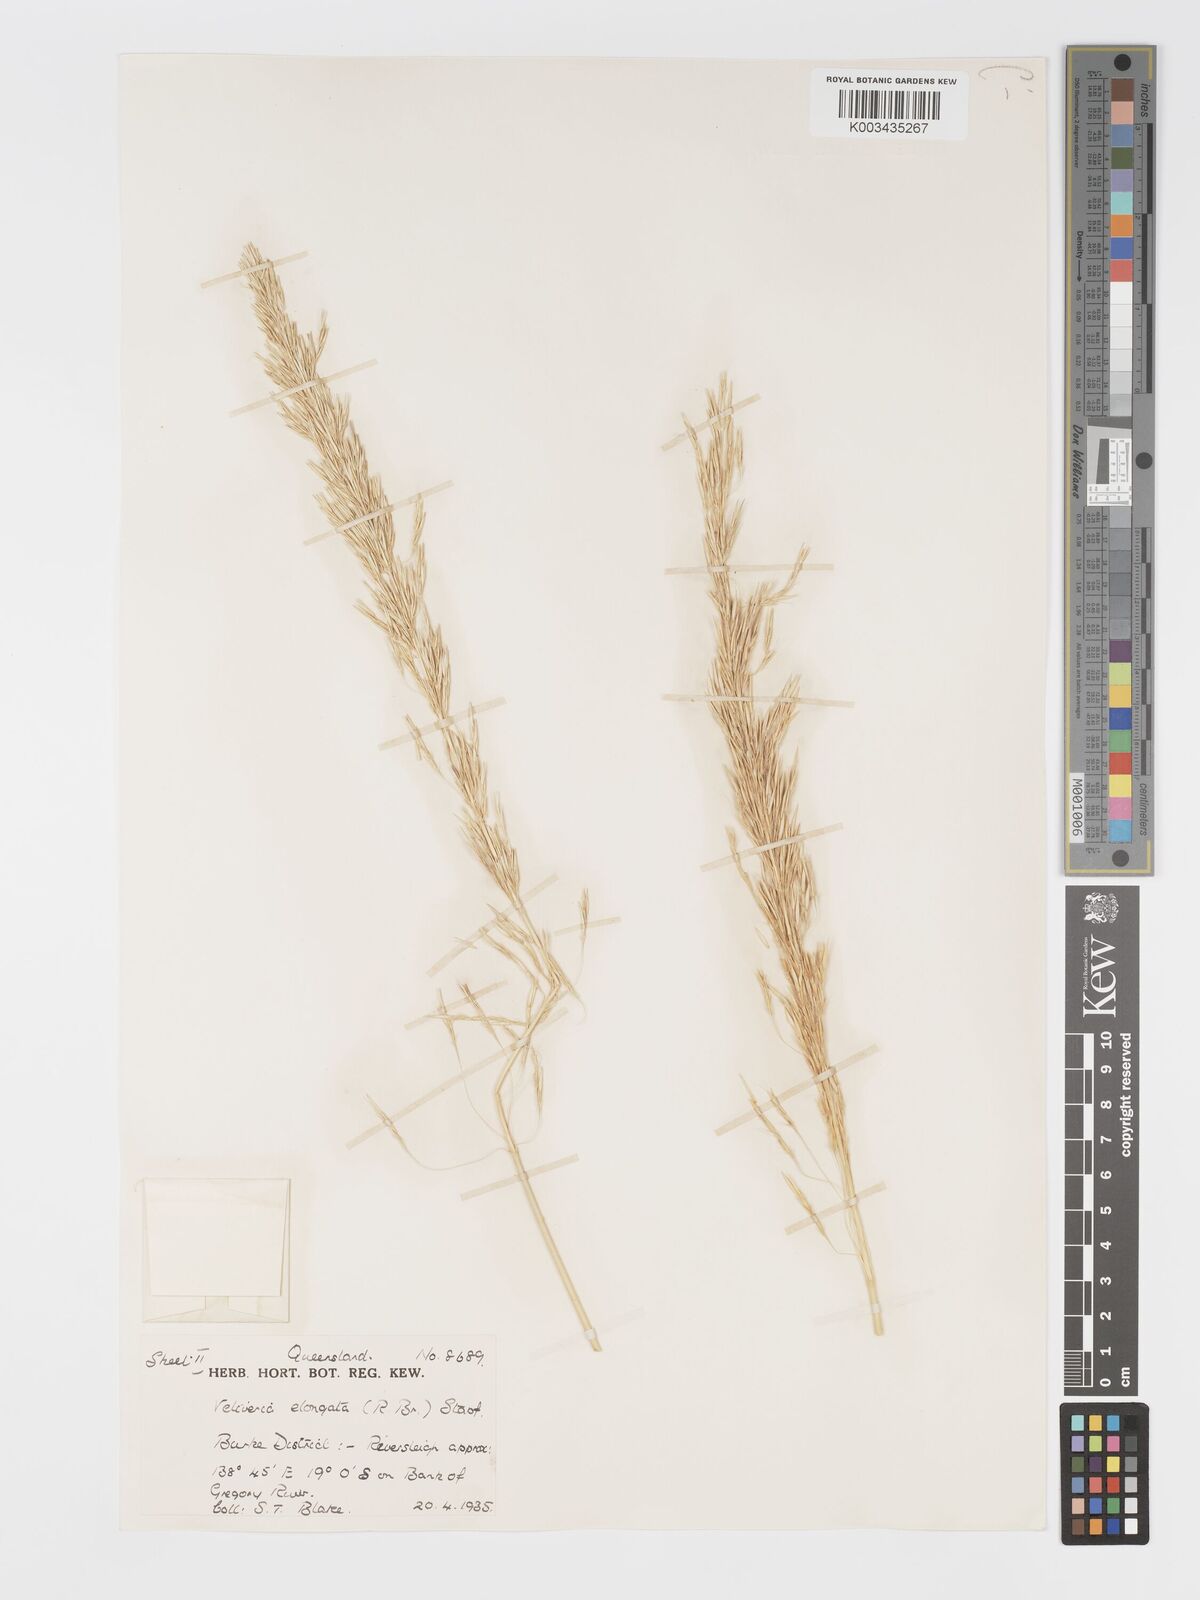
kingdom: Plantae
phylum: Tracheophyta
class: Liliopsida
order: Poales
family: Poaceae
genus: Chrysopogon
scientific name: Chrysopogon elongatus
